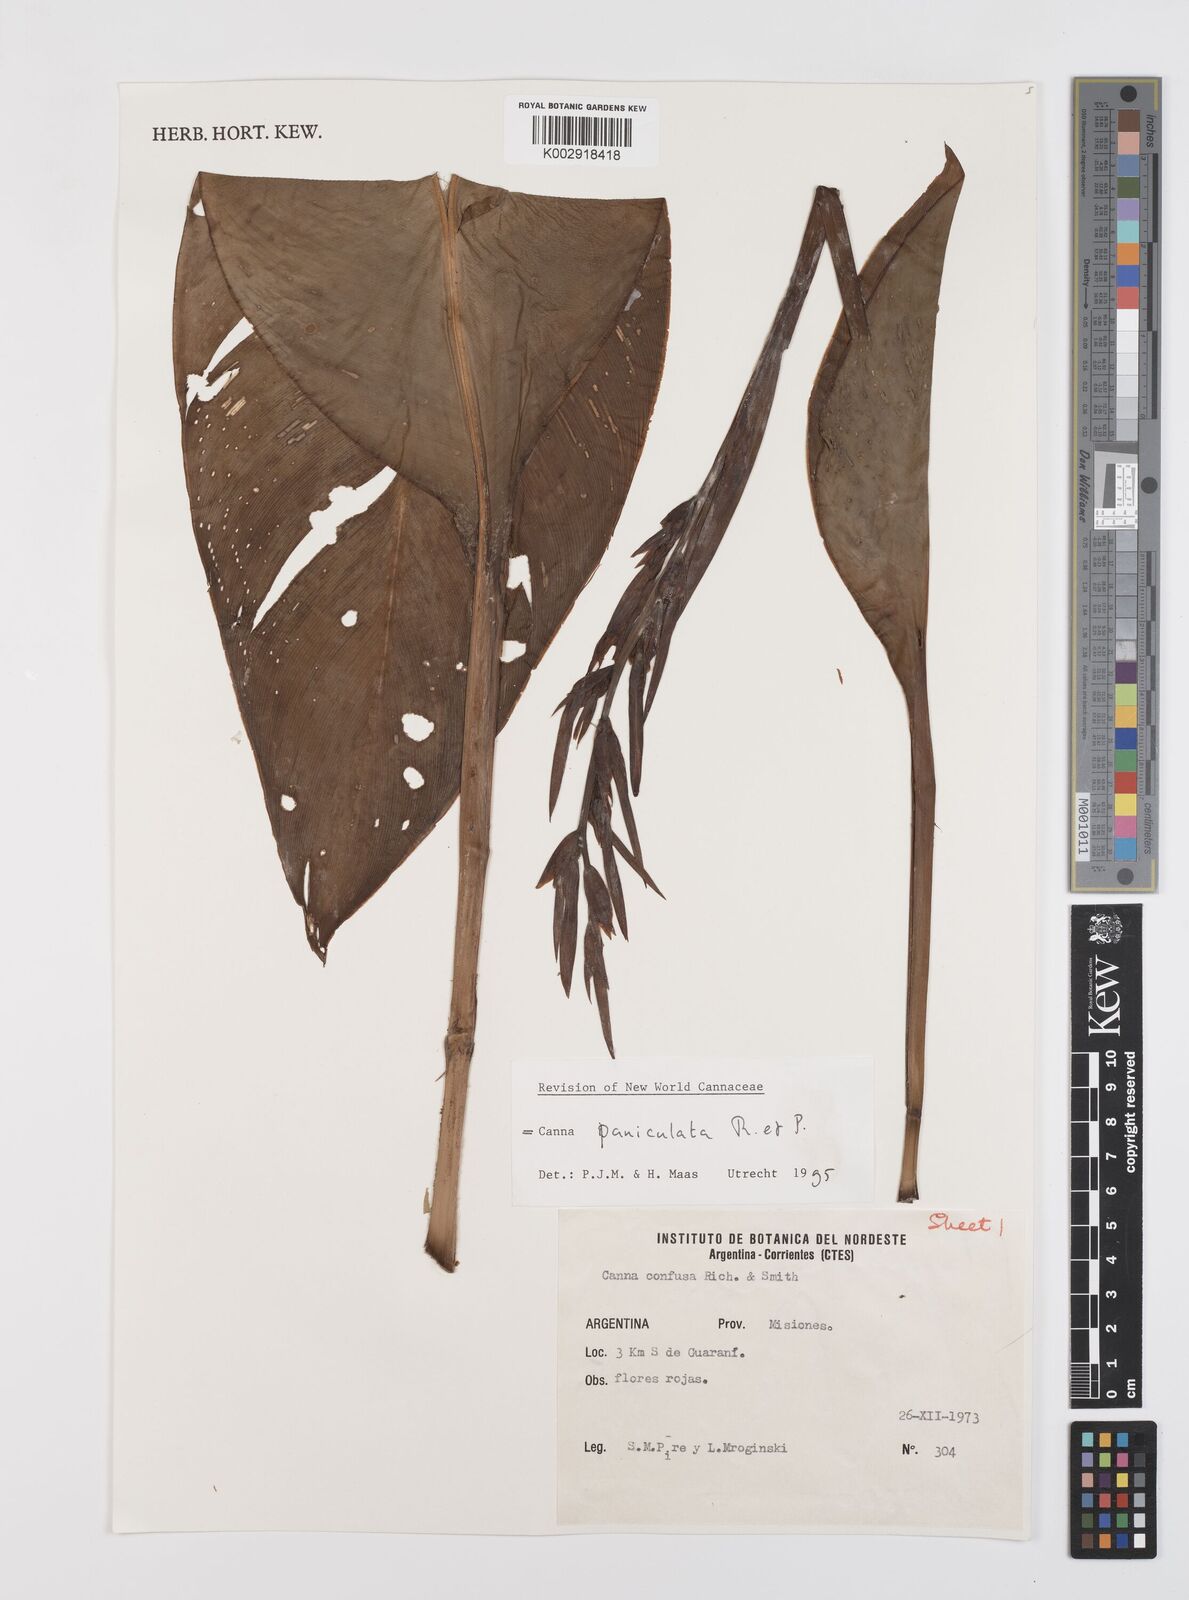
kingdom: Plantae
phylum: Tracheophyta
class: Liliopsida
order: Zingiberales
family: Cannaceae
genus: Canna
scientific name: Canna paniculata
